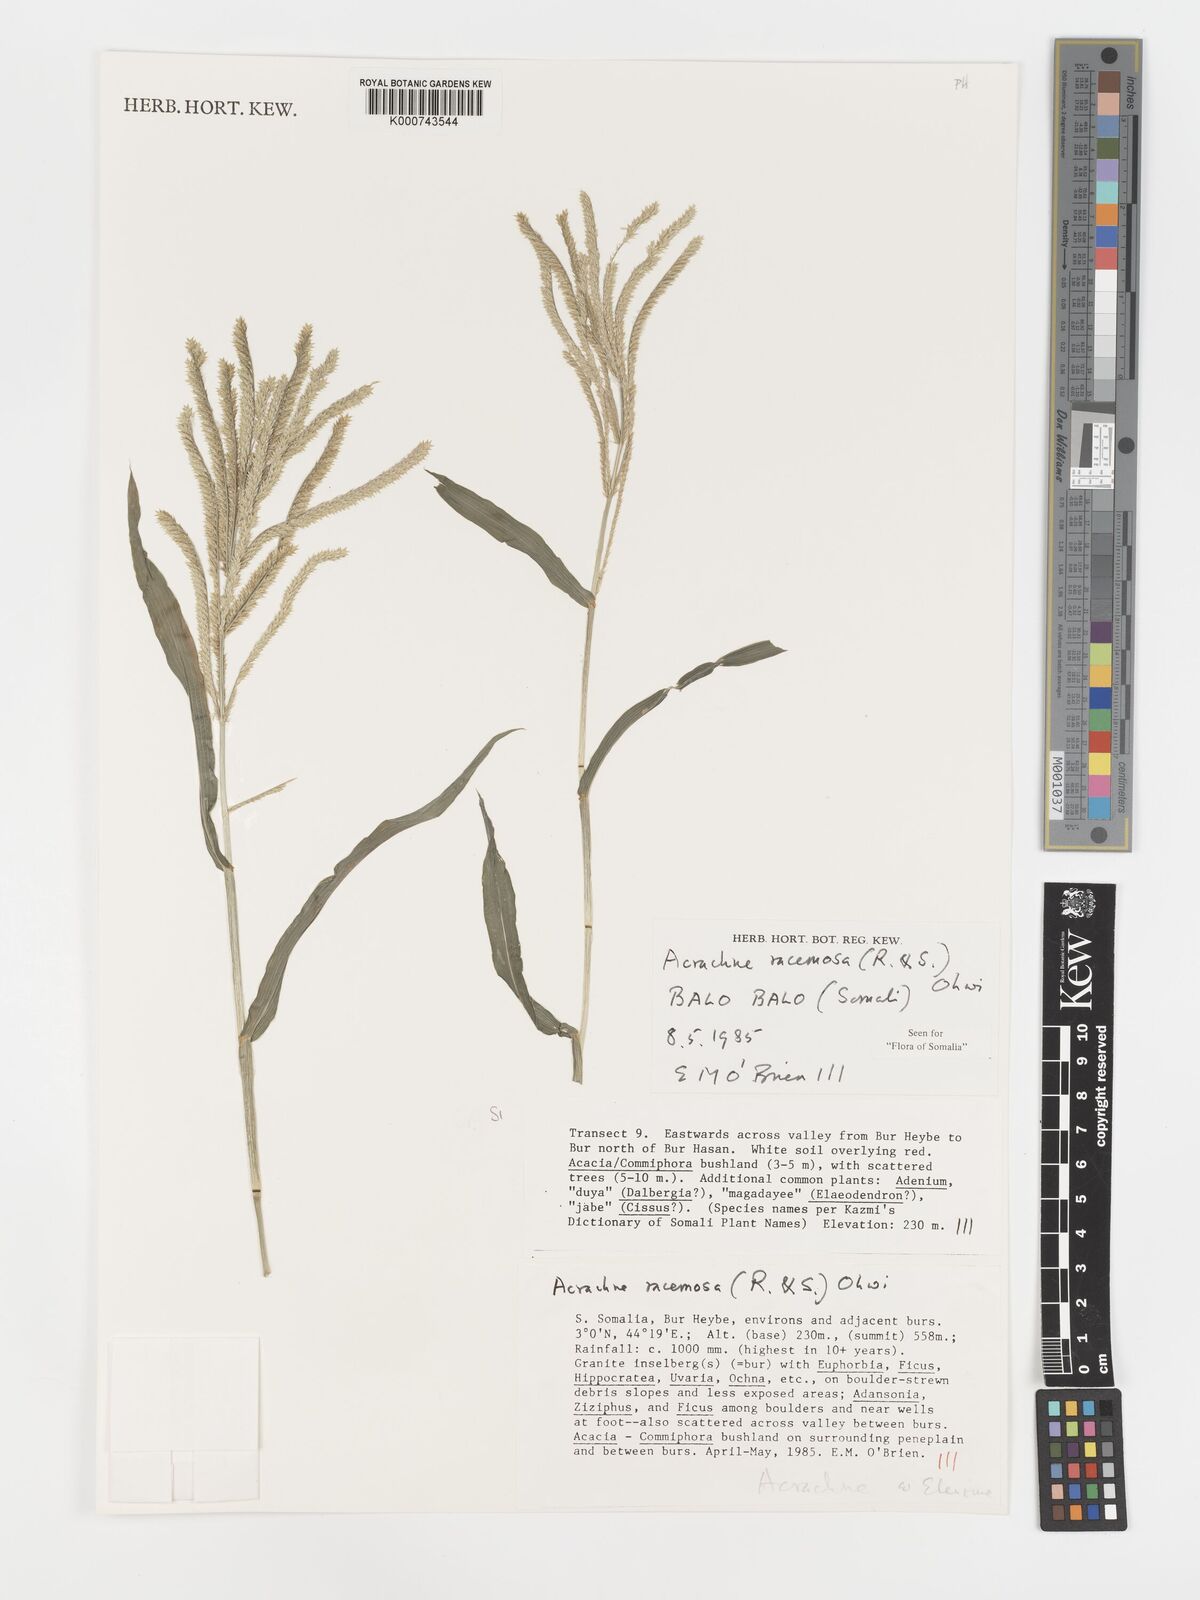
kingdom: Plantae
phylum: Tracheophyta
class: Liliopsida
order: Poales
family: Poaceae
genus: Acrachne
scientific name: Acrachne racemosa
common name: Goosegrass
